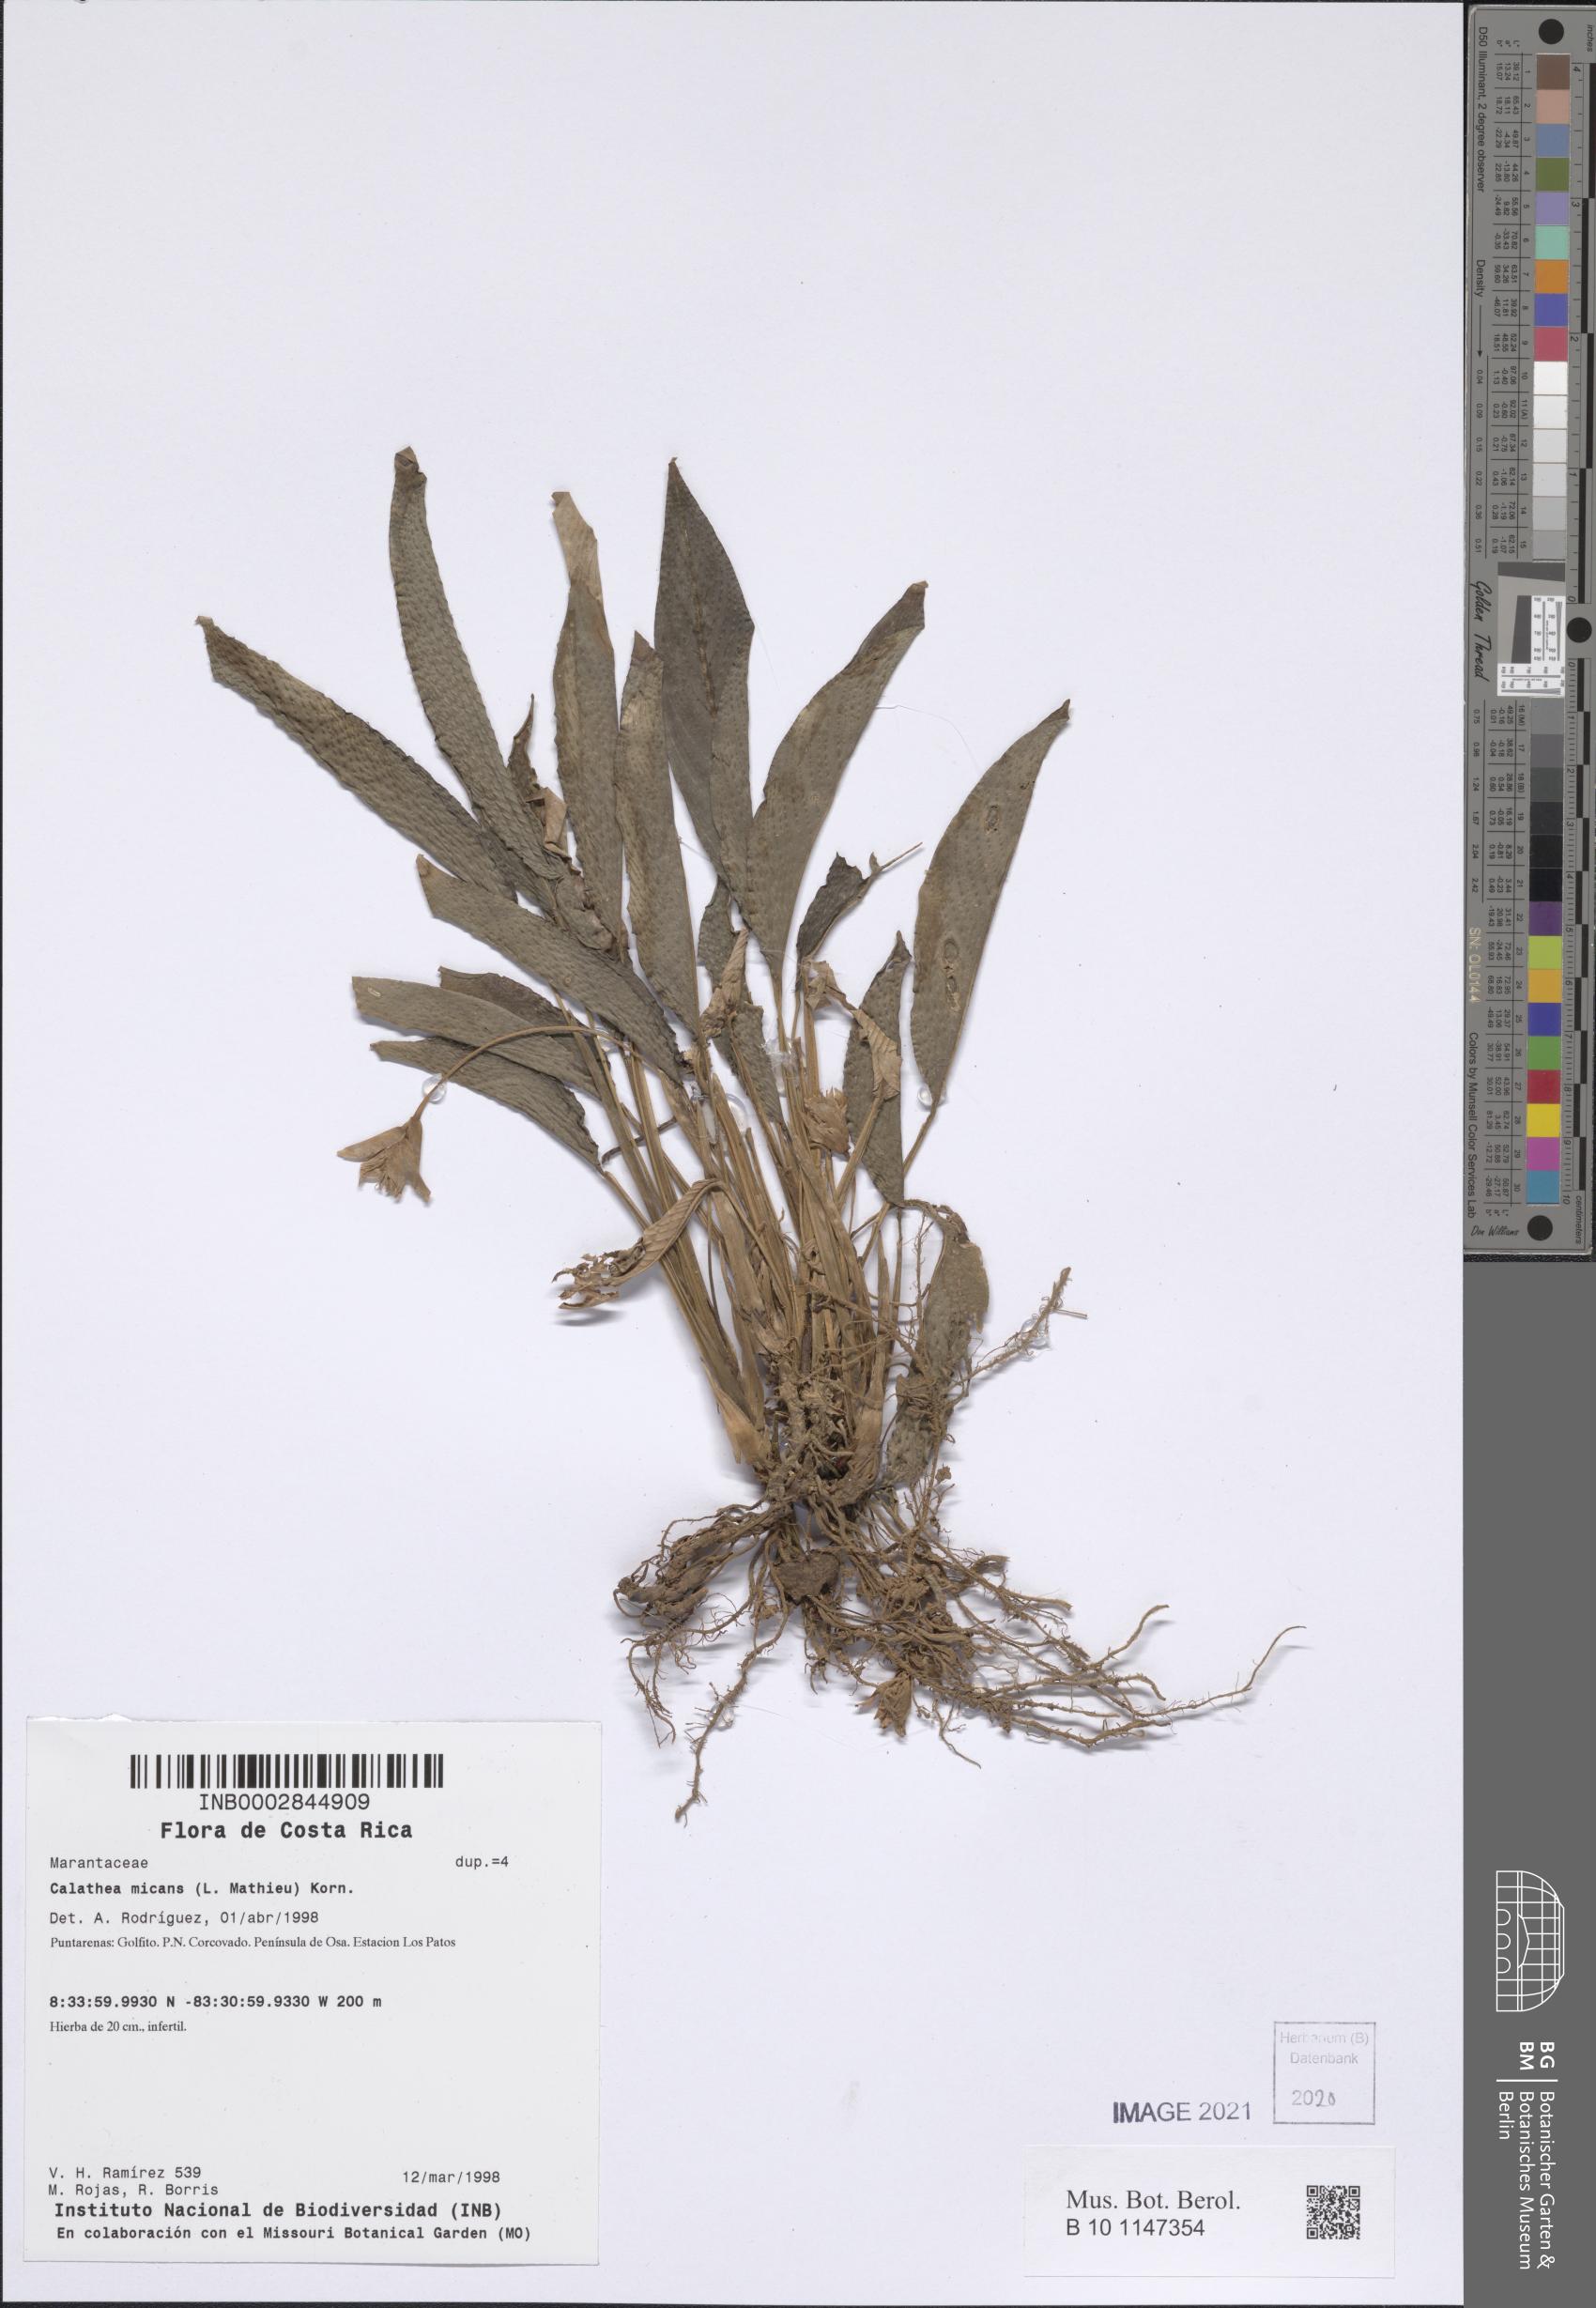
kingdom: Plantae
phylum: Tracheophyta
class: Liliopsida
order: Zingiberales
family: Marantaceae
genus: Goeppertia
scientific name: Goeppertia micans
